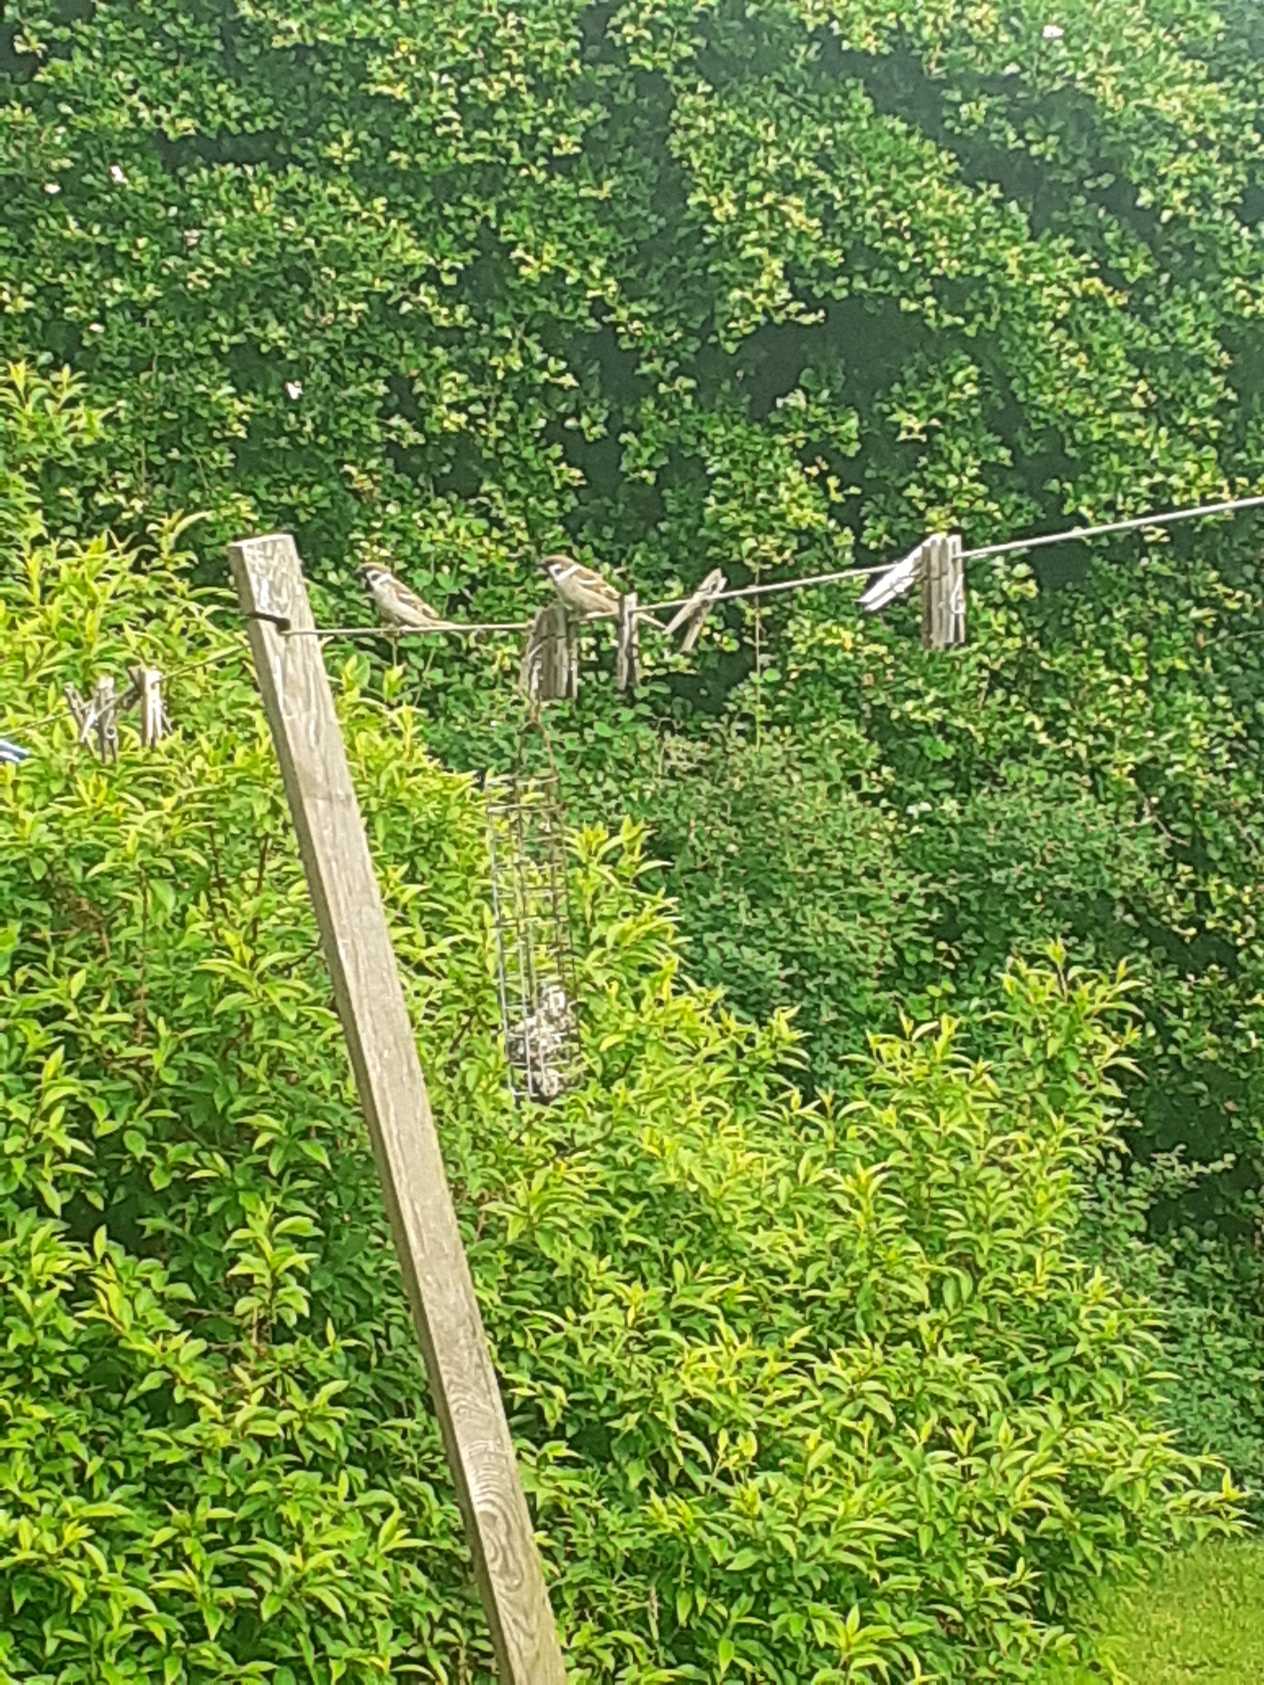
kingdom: Animalia
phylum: Chordata
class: Aves
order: Passeriformes
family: Passeridae
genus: Passer
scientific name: Passer montanus
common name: Skovspurv
